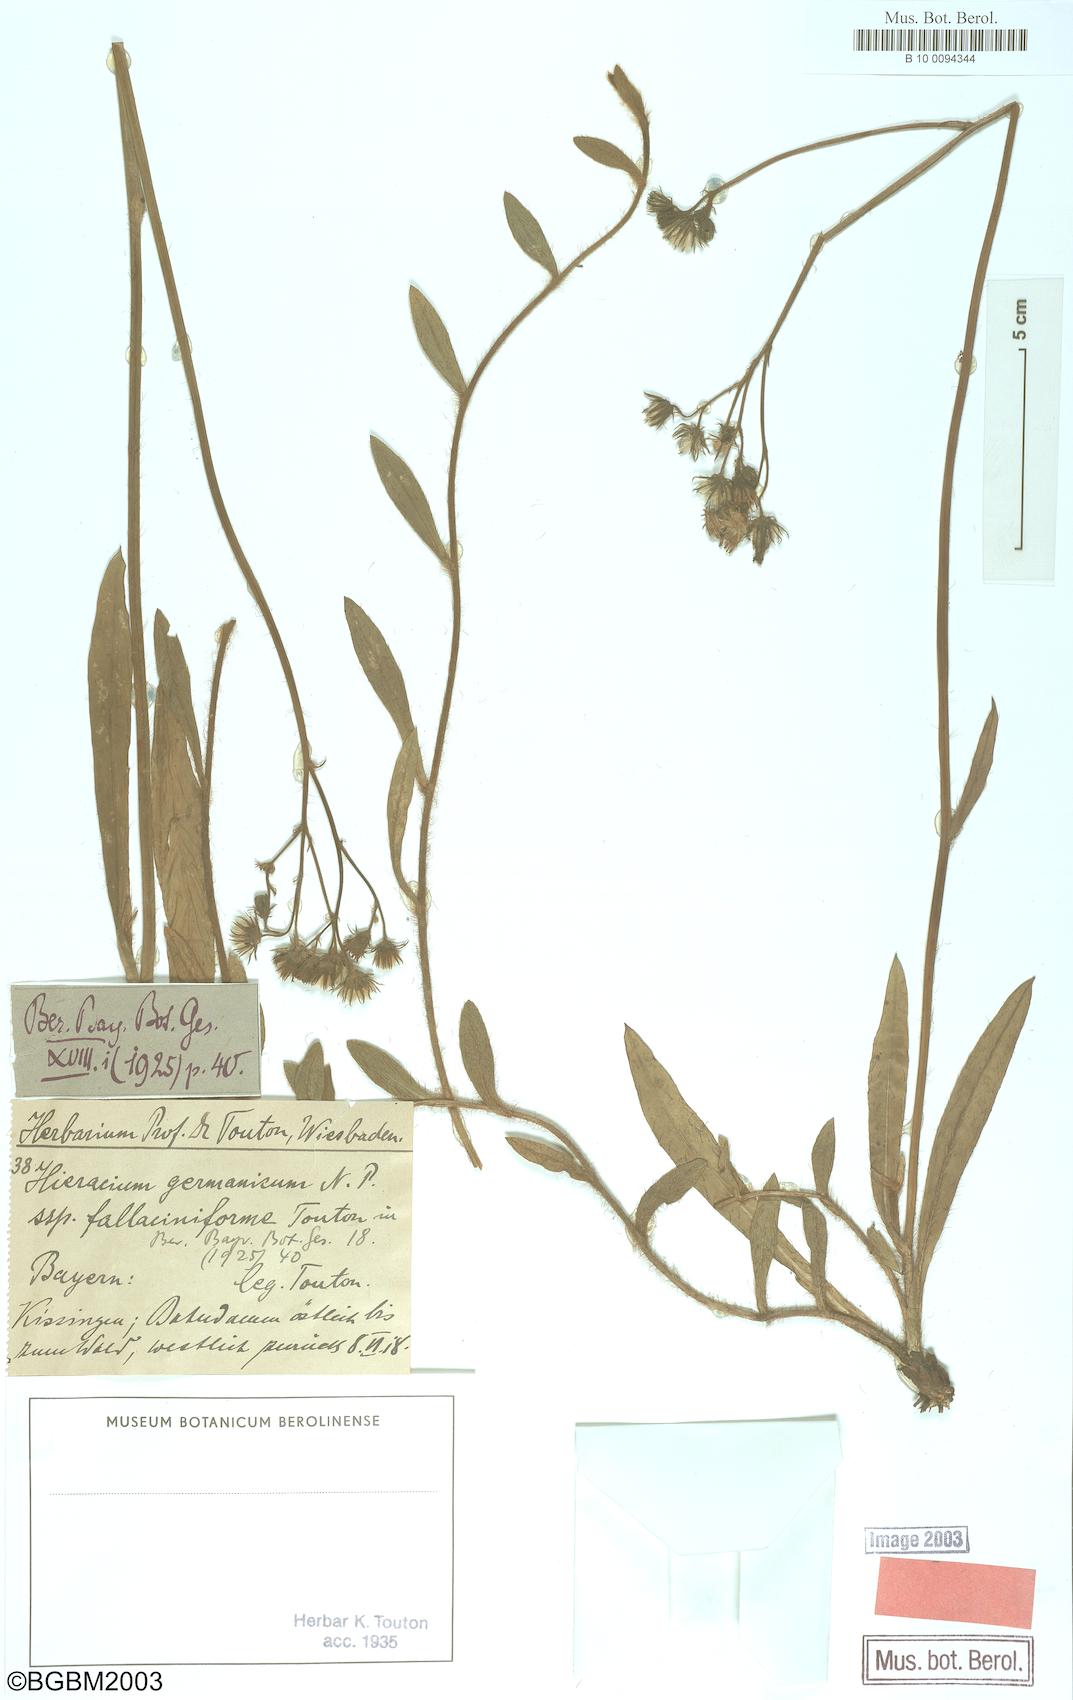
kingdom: Plantae
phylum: Tracheophyta
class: Magnoliopsida
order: Asterales
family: Asteraceae
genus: Pilosella
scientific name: Pilosella fallacina
